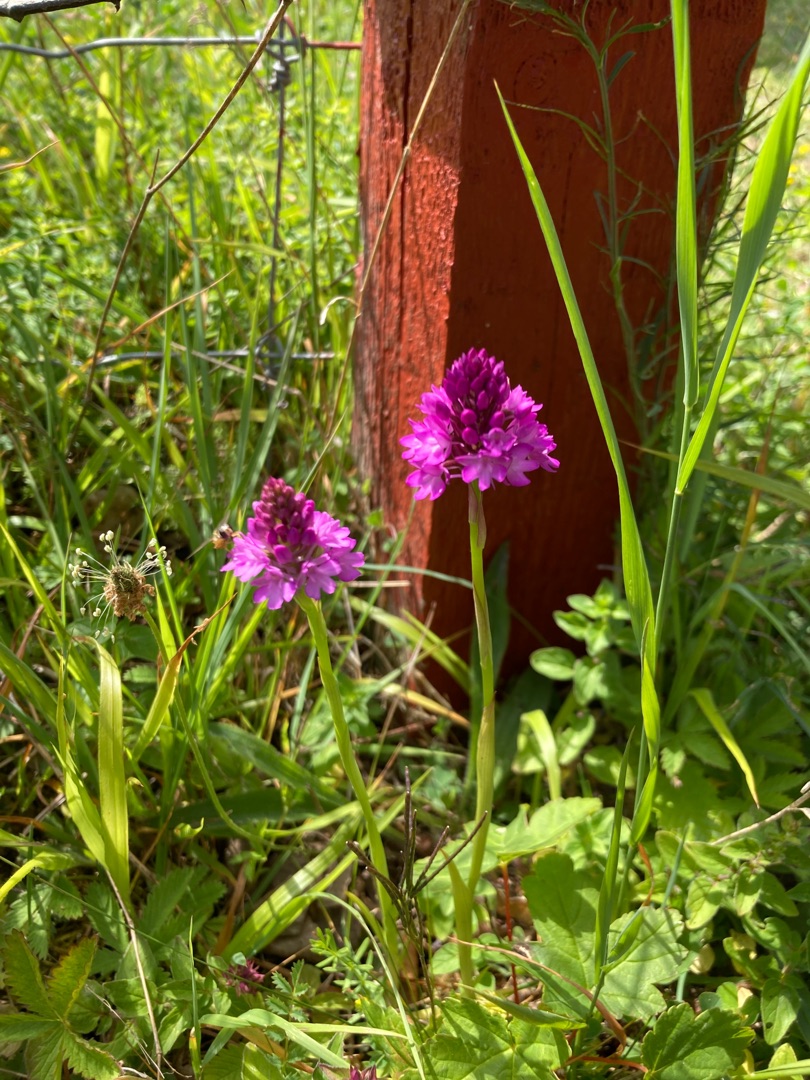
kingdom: Plantae
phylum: Tracheophyta
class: Liliopsida
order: Asparagales
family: Orchidaceae
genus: Anacamptis
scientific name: Anacamptis pyramidalis
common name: Horndrager
